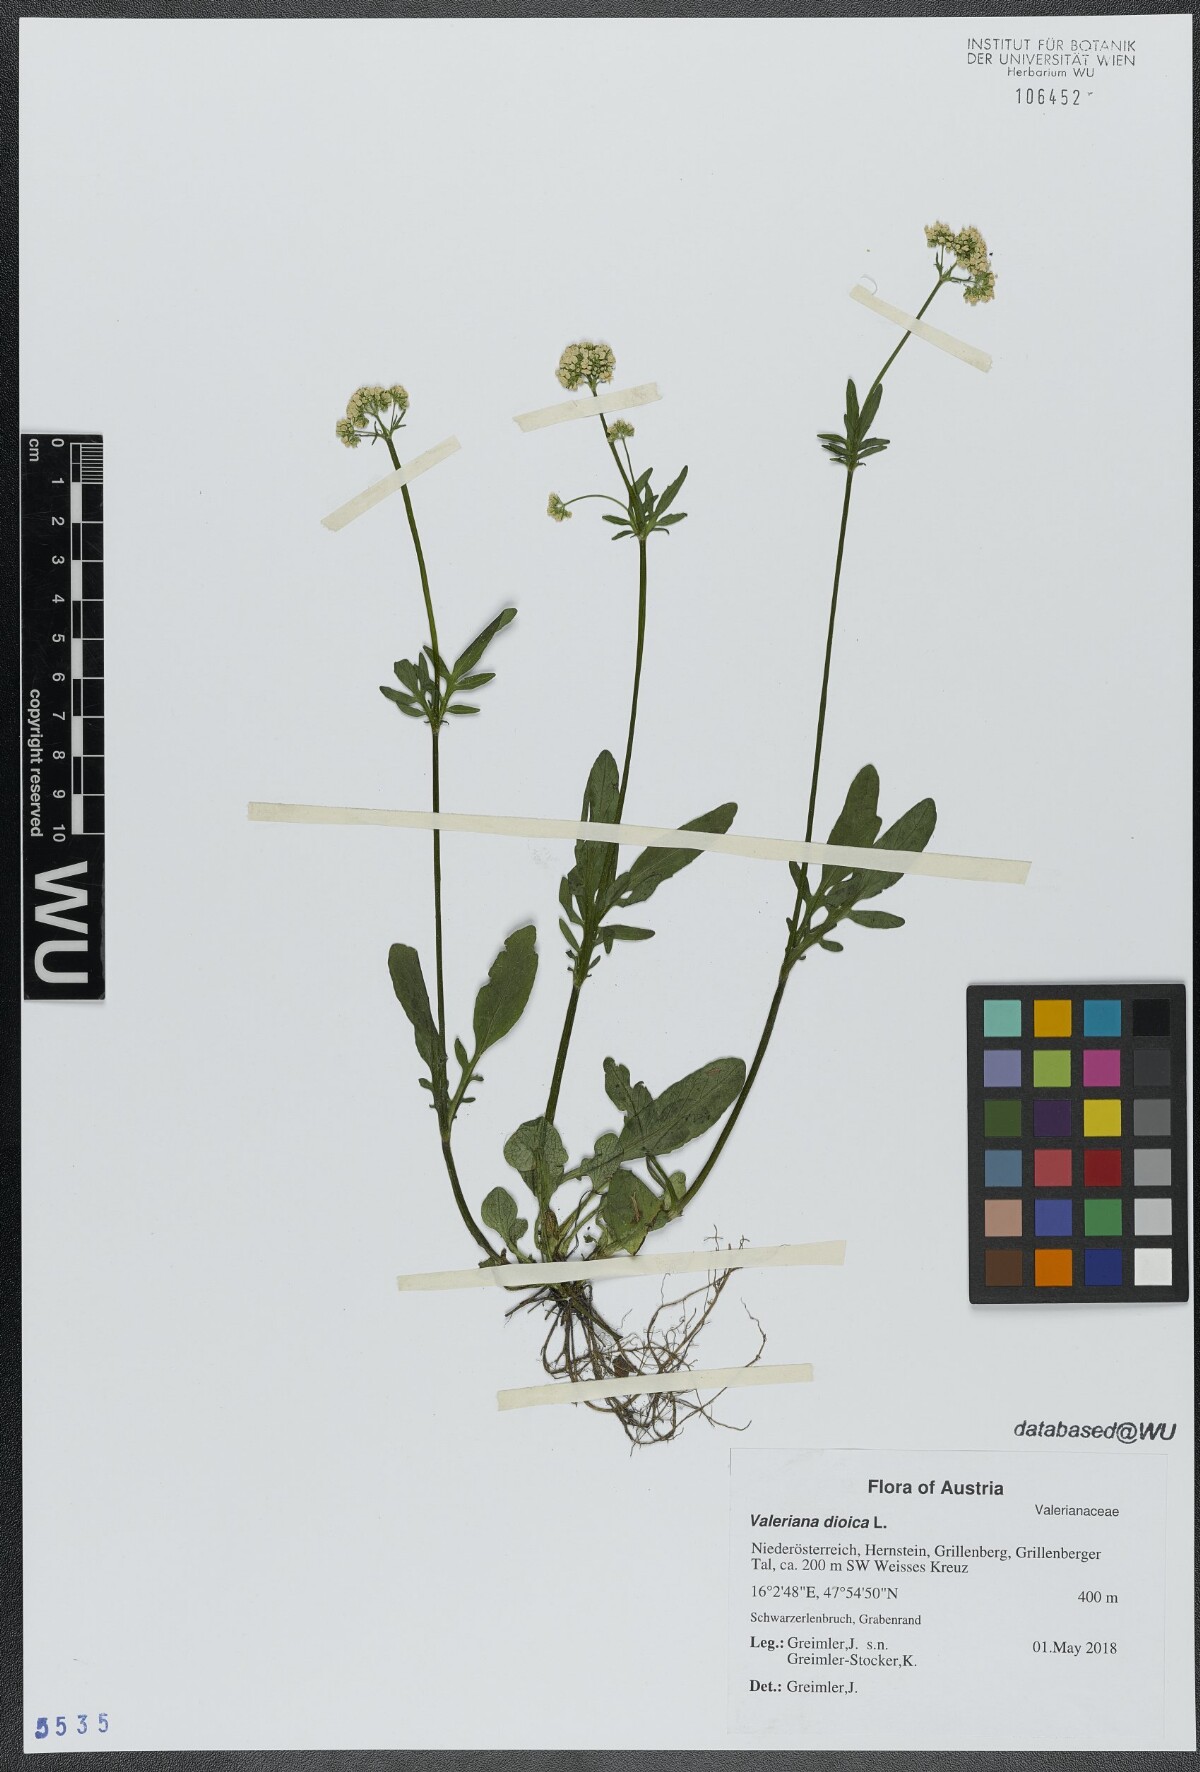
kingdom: Plantae
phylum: Tracheophyta
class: Magnoliopsida
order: Dipsacales
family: Caprifoliaceae
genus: Valeriana
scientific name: Valeriana dioica
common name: Marsh valerian
